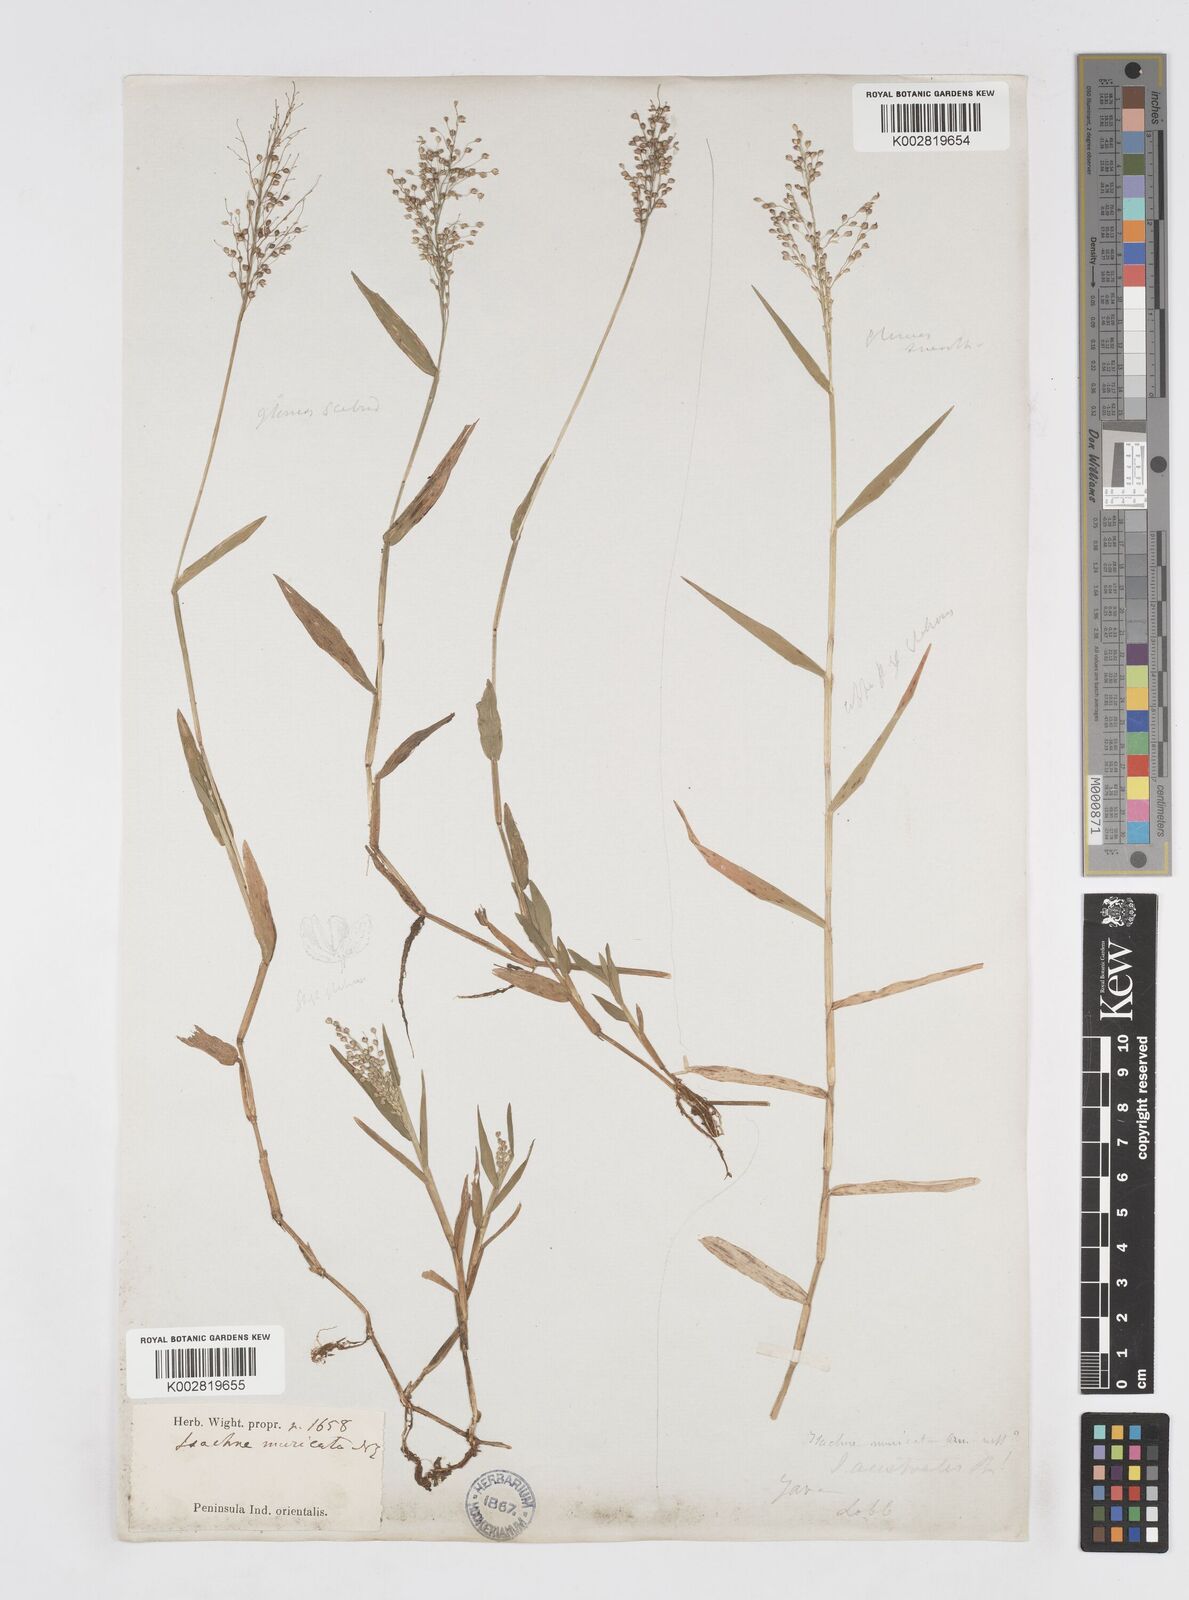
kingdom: Plantae
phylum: Tracheophyta
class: Liliopsida
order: Poales
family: Poaceae
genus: Isachne
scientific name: Isachne globosa
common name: Swamp millet
